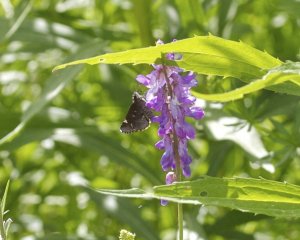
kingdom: Animalia
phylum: Arthropoda
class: Insecta
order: Lepidoptera
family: Hesperiidae
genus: Mastor
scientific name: Mastor vialis
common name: Common Roadside-Skipper
